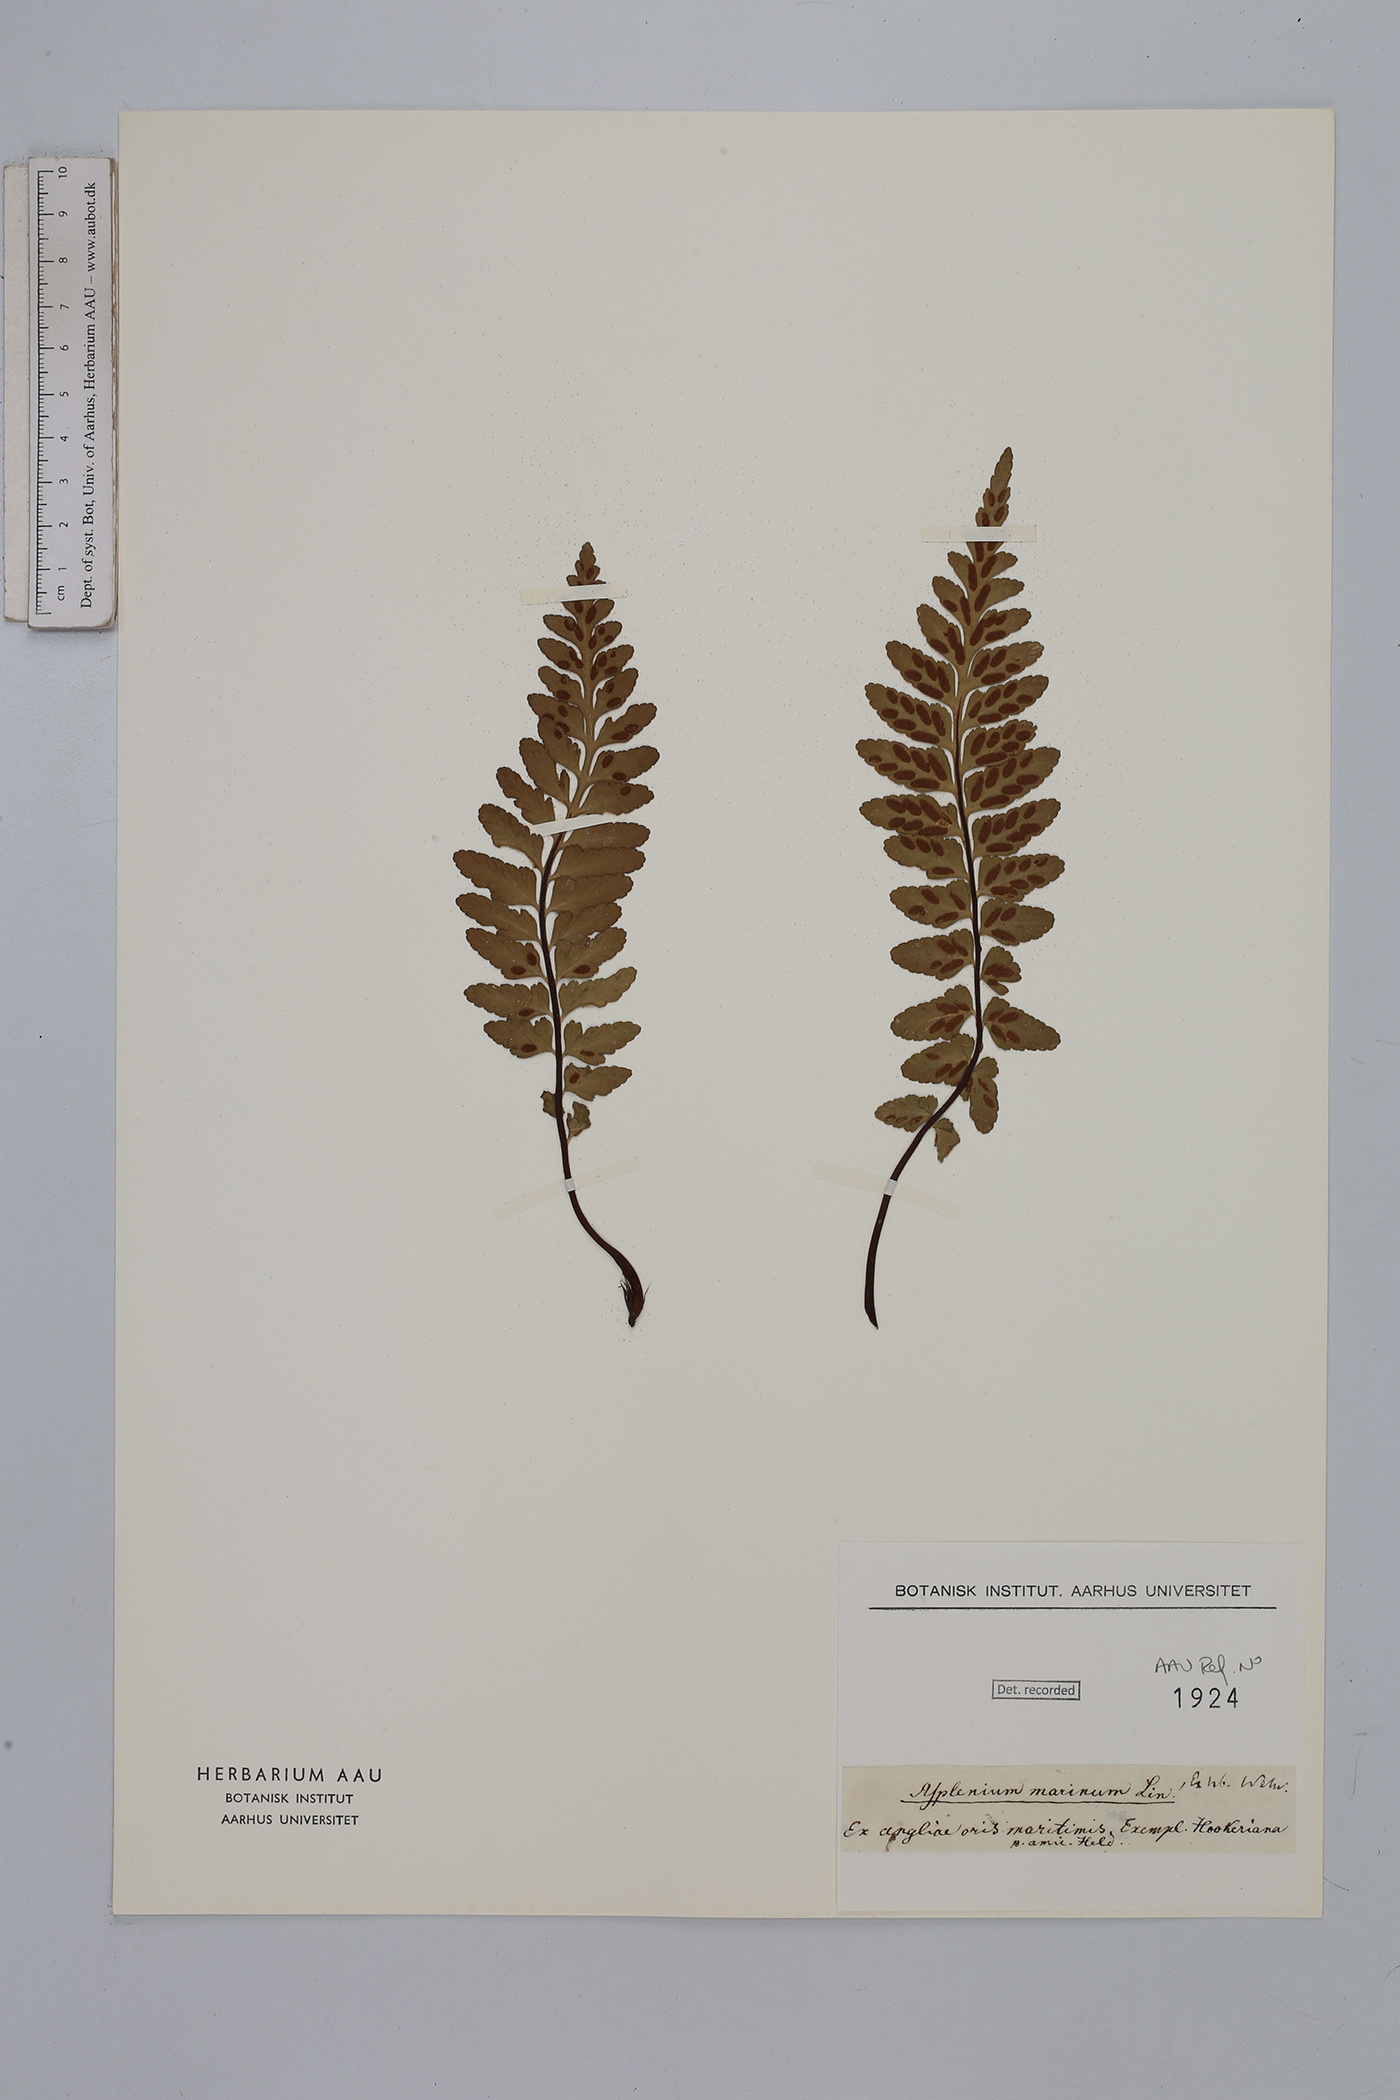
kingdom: Plantae
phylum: Tracheophyta
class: Polypodiopsida
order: Polypodiales
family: Aspleniaceae
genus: Asplenium
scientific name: Asplenium marinum
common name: Sea spleenwort
